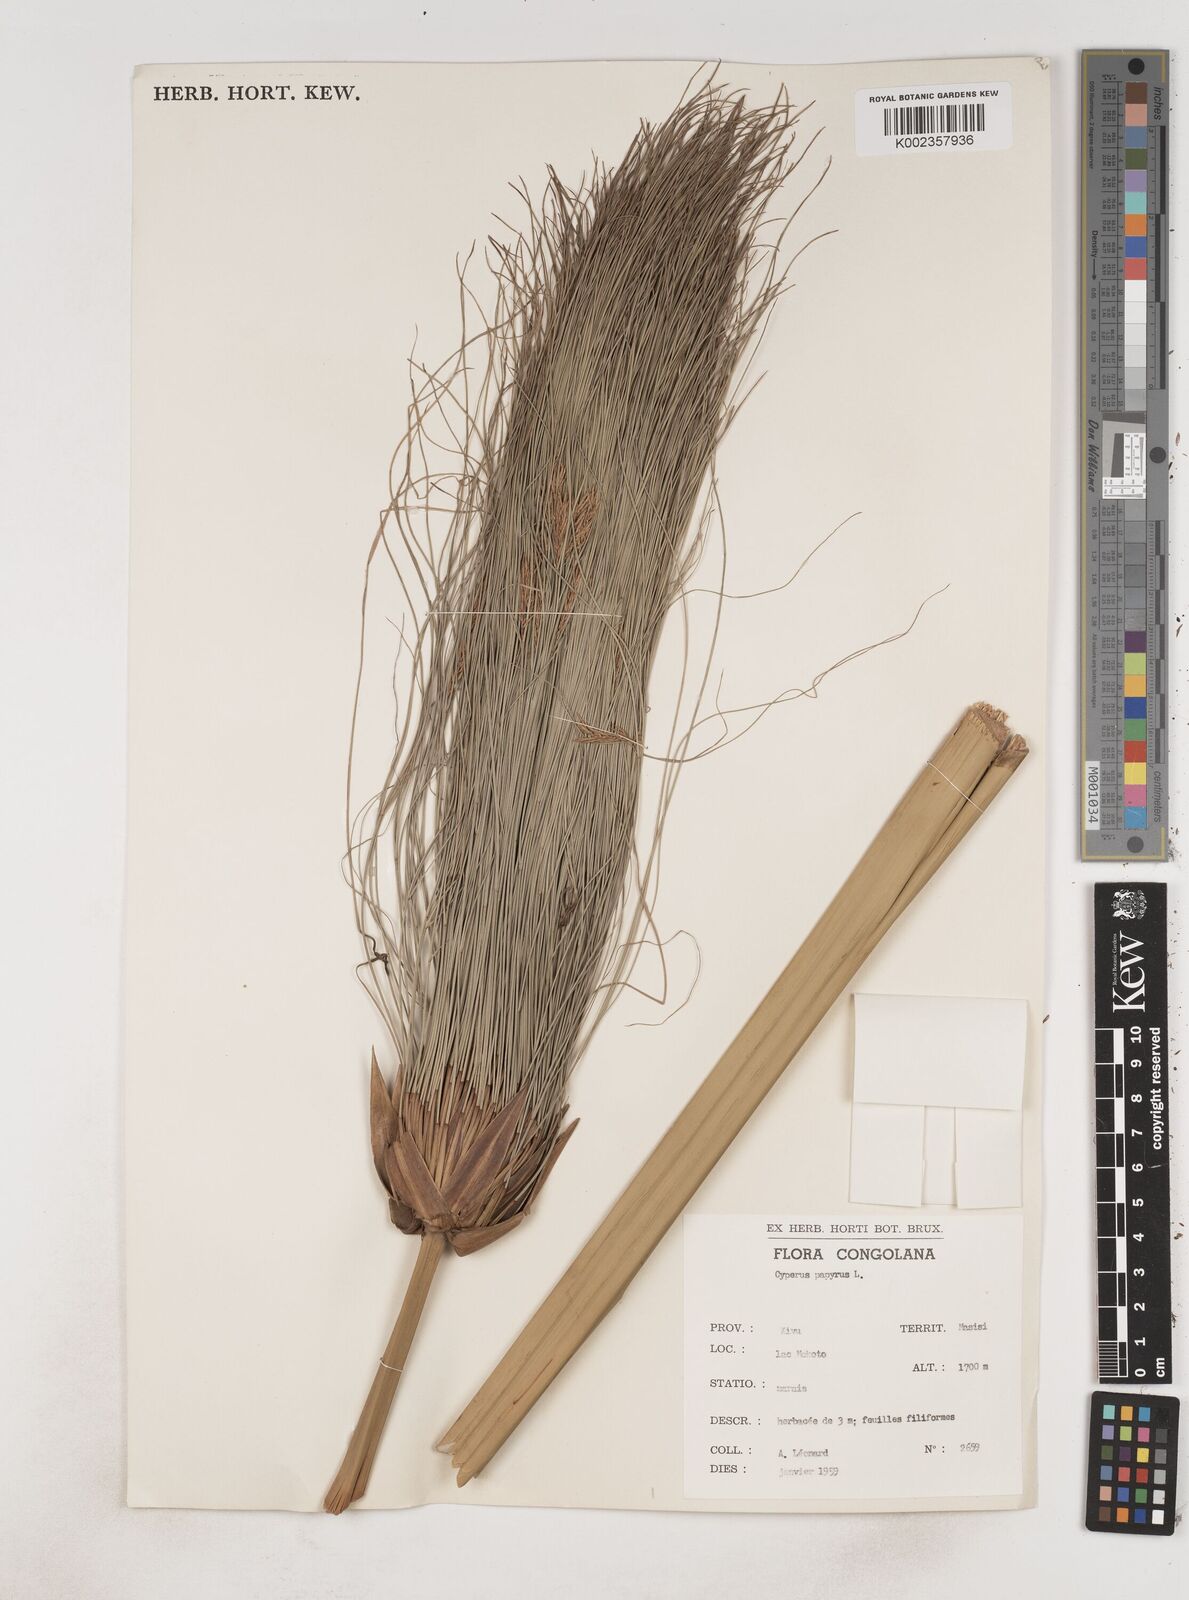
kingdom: Plantae
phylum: Tracheophyta
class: Liliopsida
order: Poales
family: Cyperaceae
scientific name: Cyperaceae
